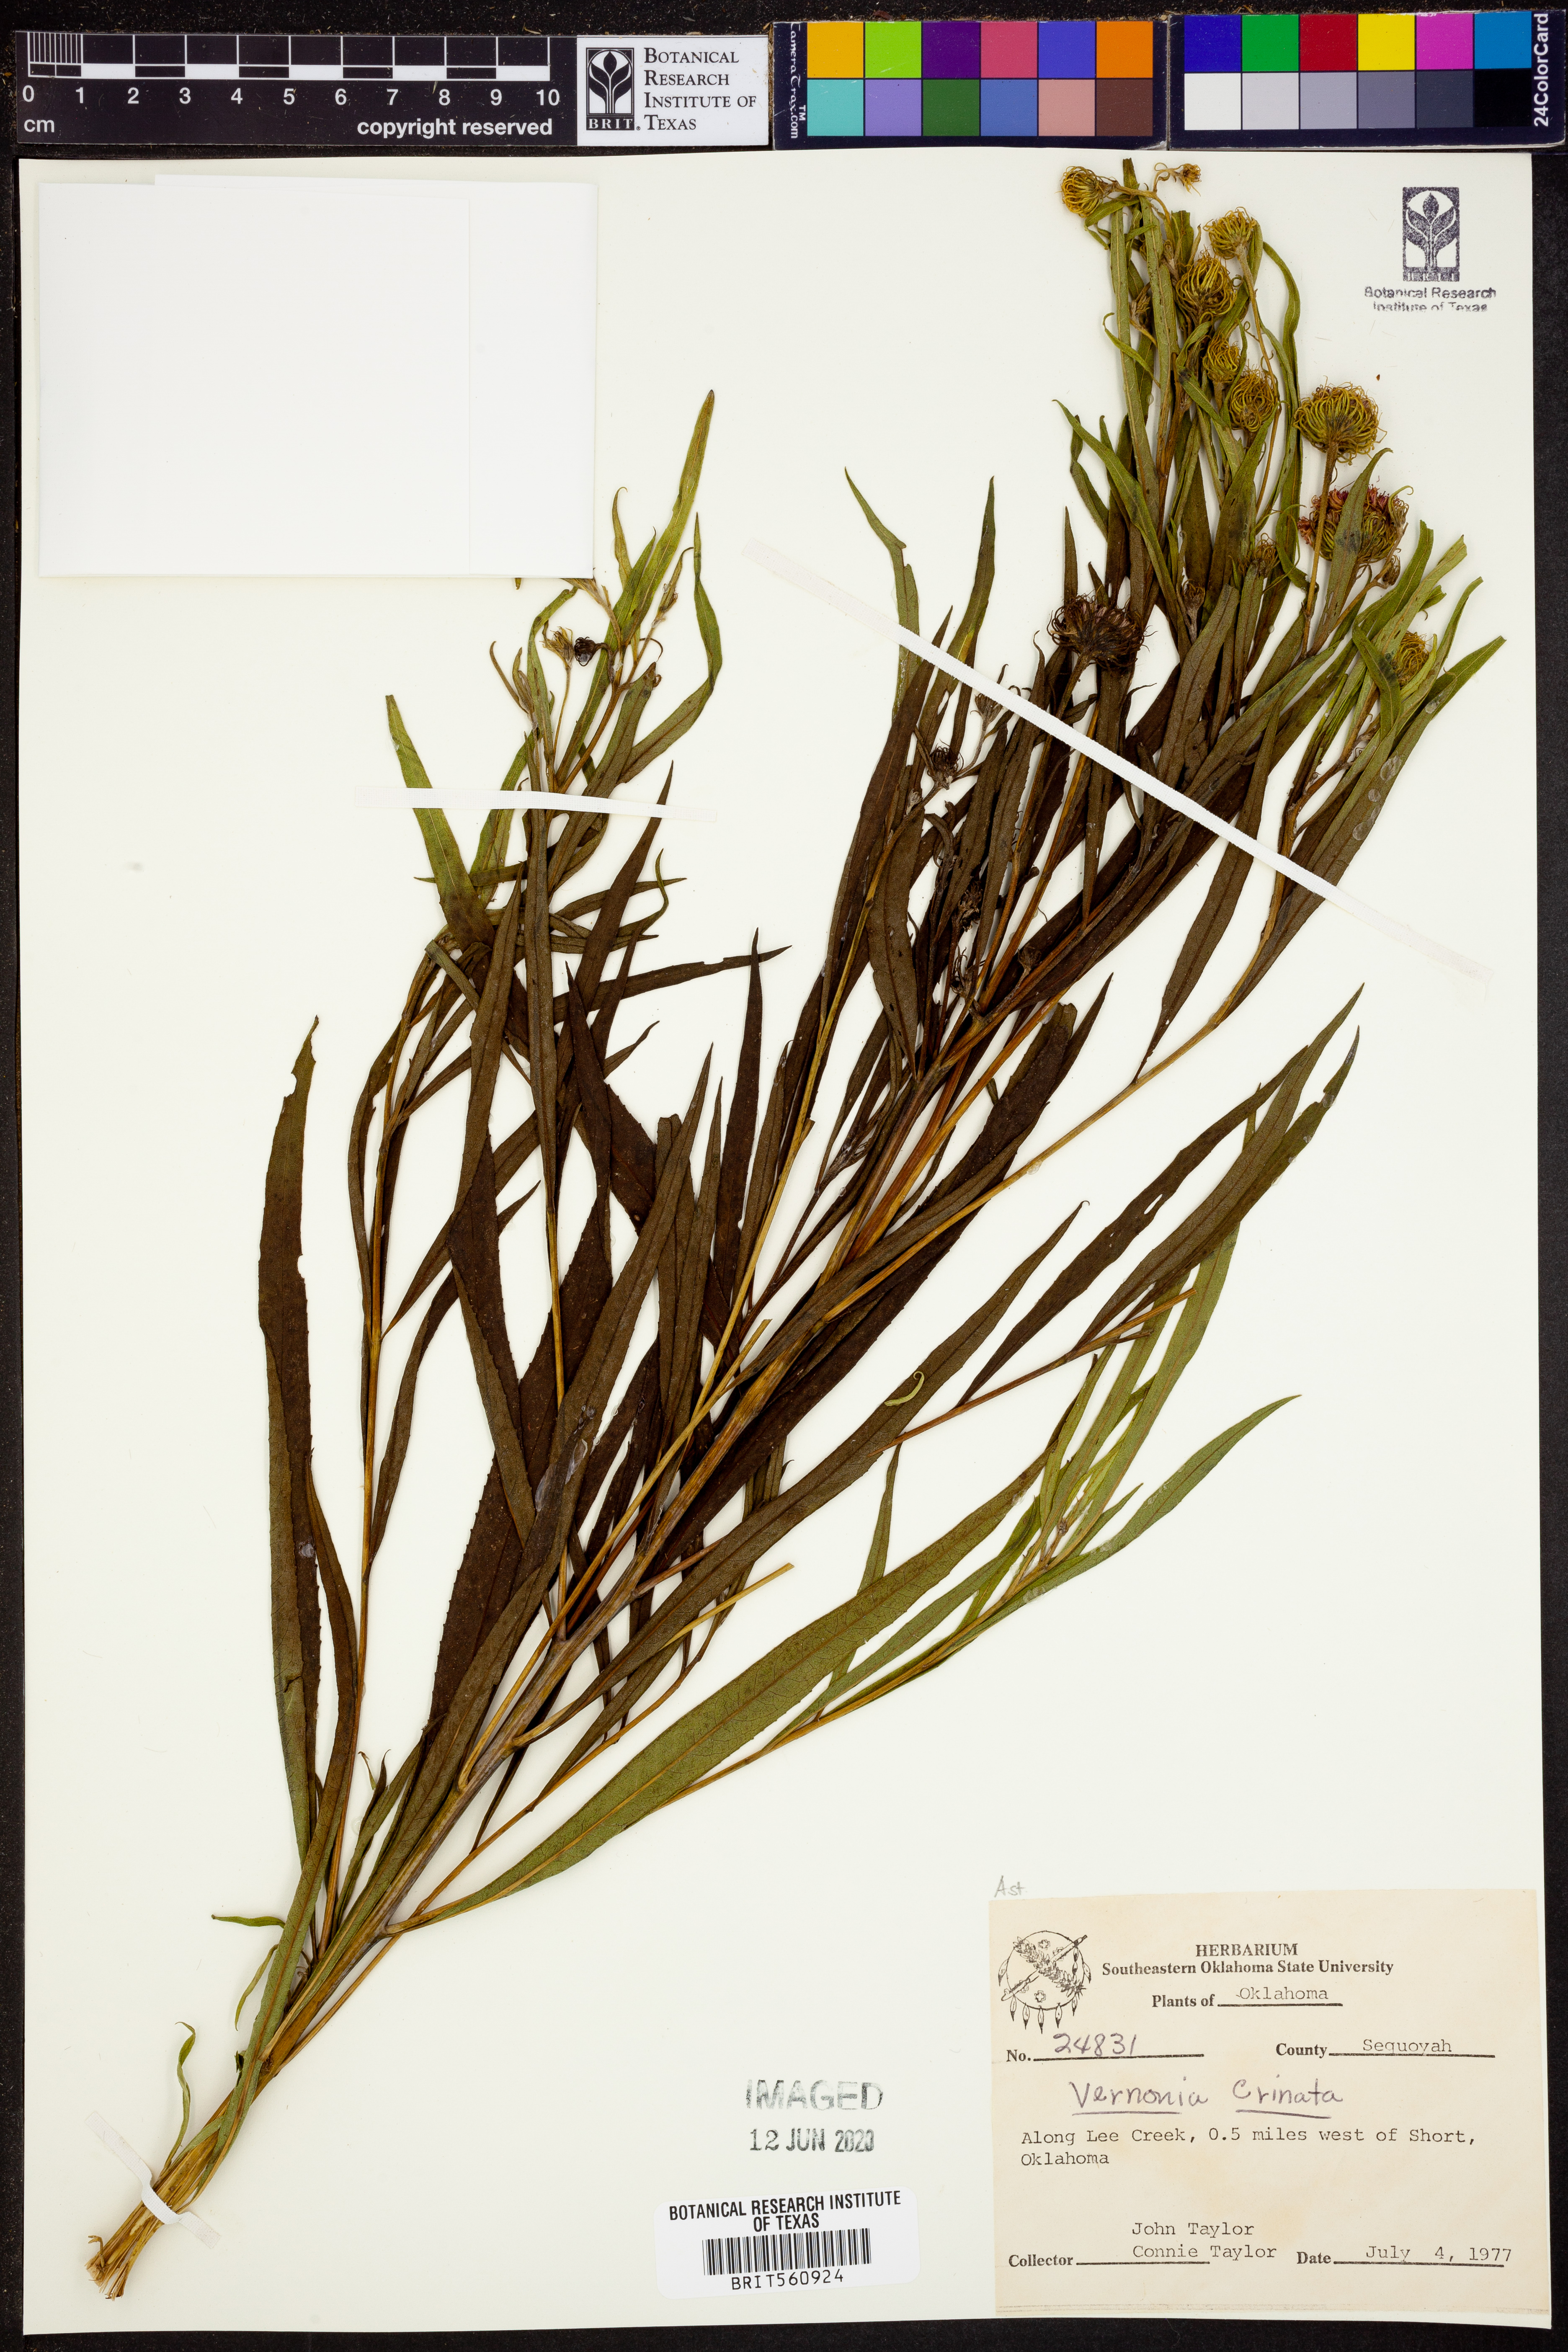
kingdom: Plantae
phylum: Tracheophyta
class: Magnoliopsida
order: Asterales
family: Asteraceae
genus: Vernonia
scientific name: Vernonia arkansana
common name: Ozark ironweed
